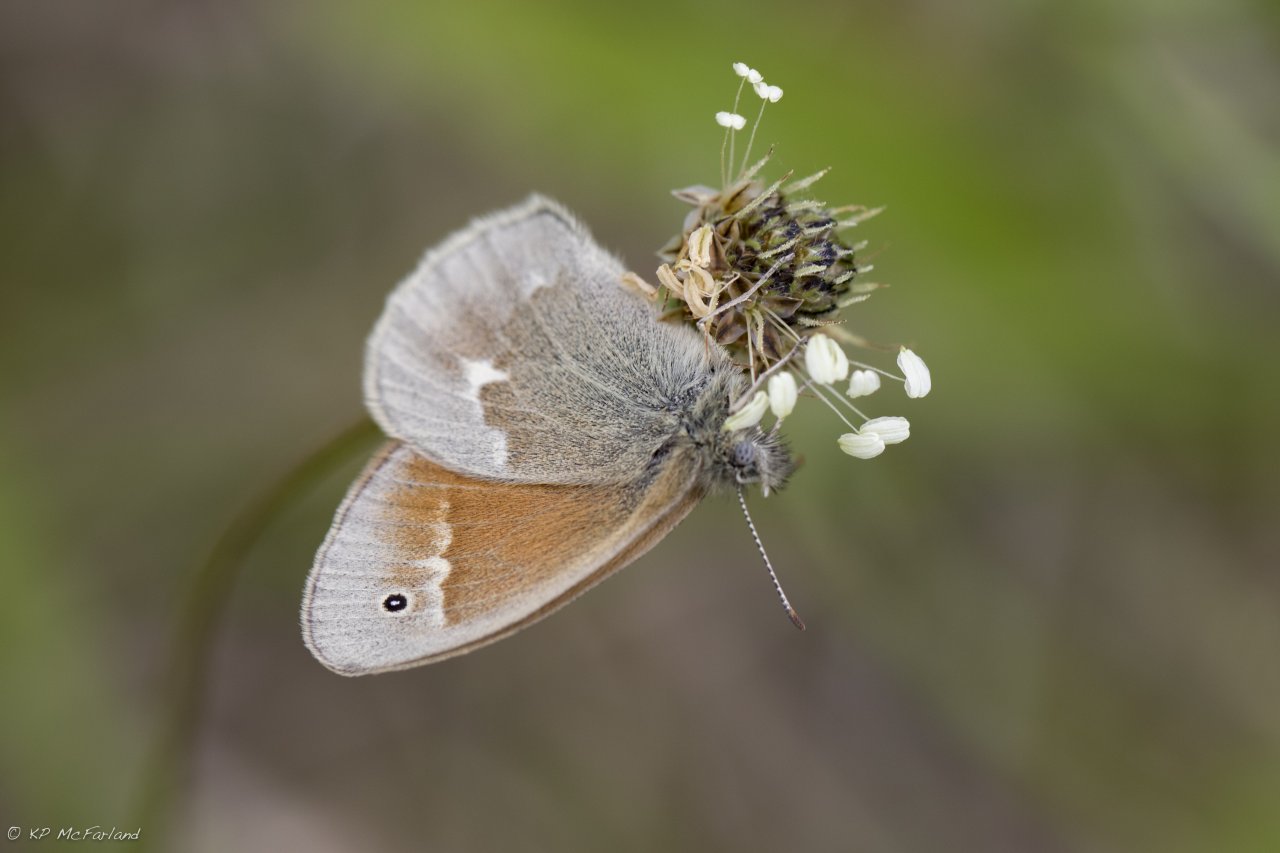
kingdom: Animalia
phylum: Arthropoda
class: Insecta
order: Lepidoptera
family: Nymphalidae
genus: Coenonympha
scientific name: Coenonympha tullia
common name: Large Heath
